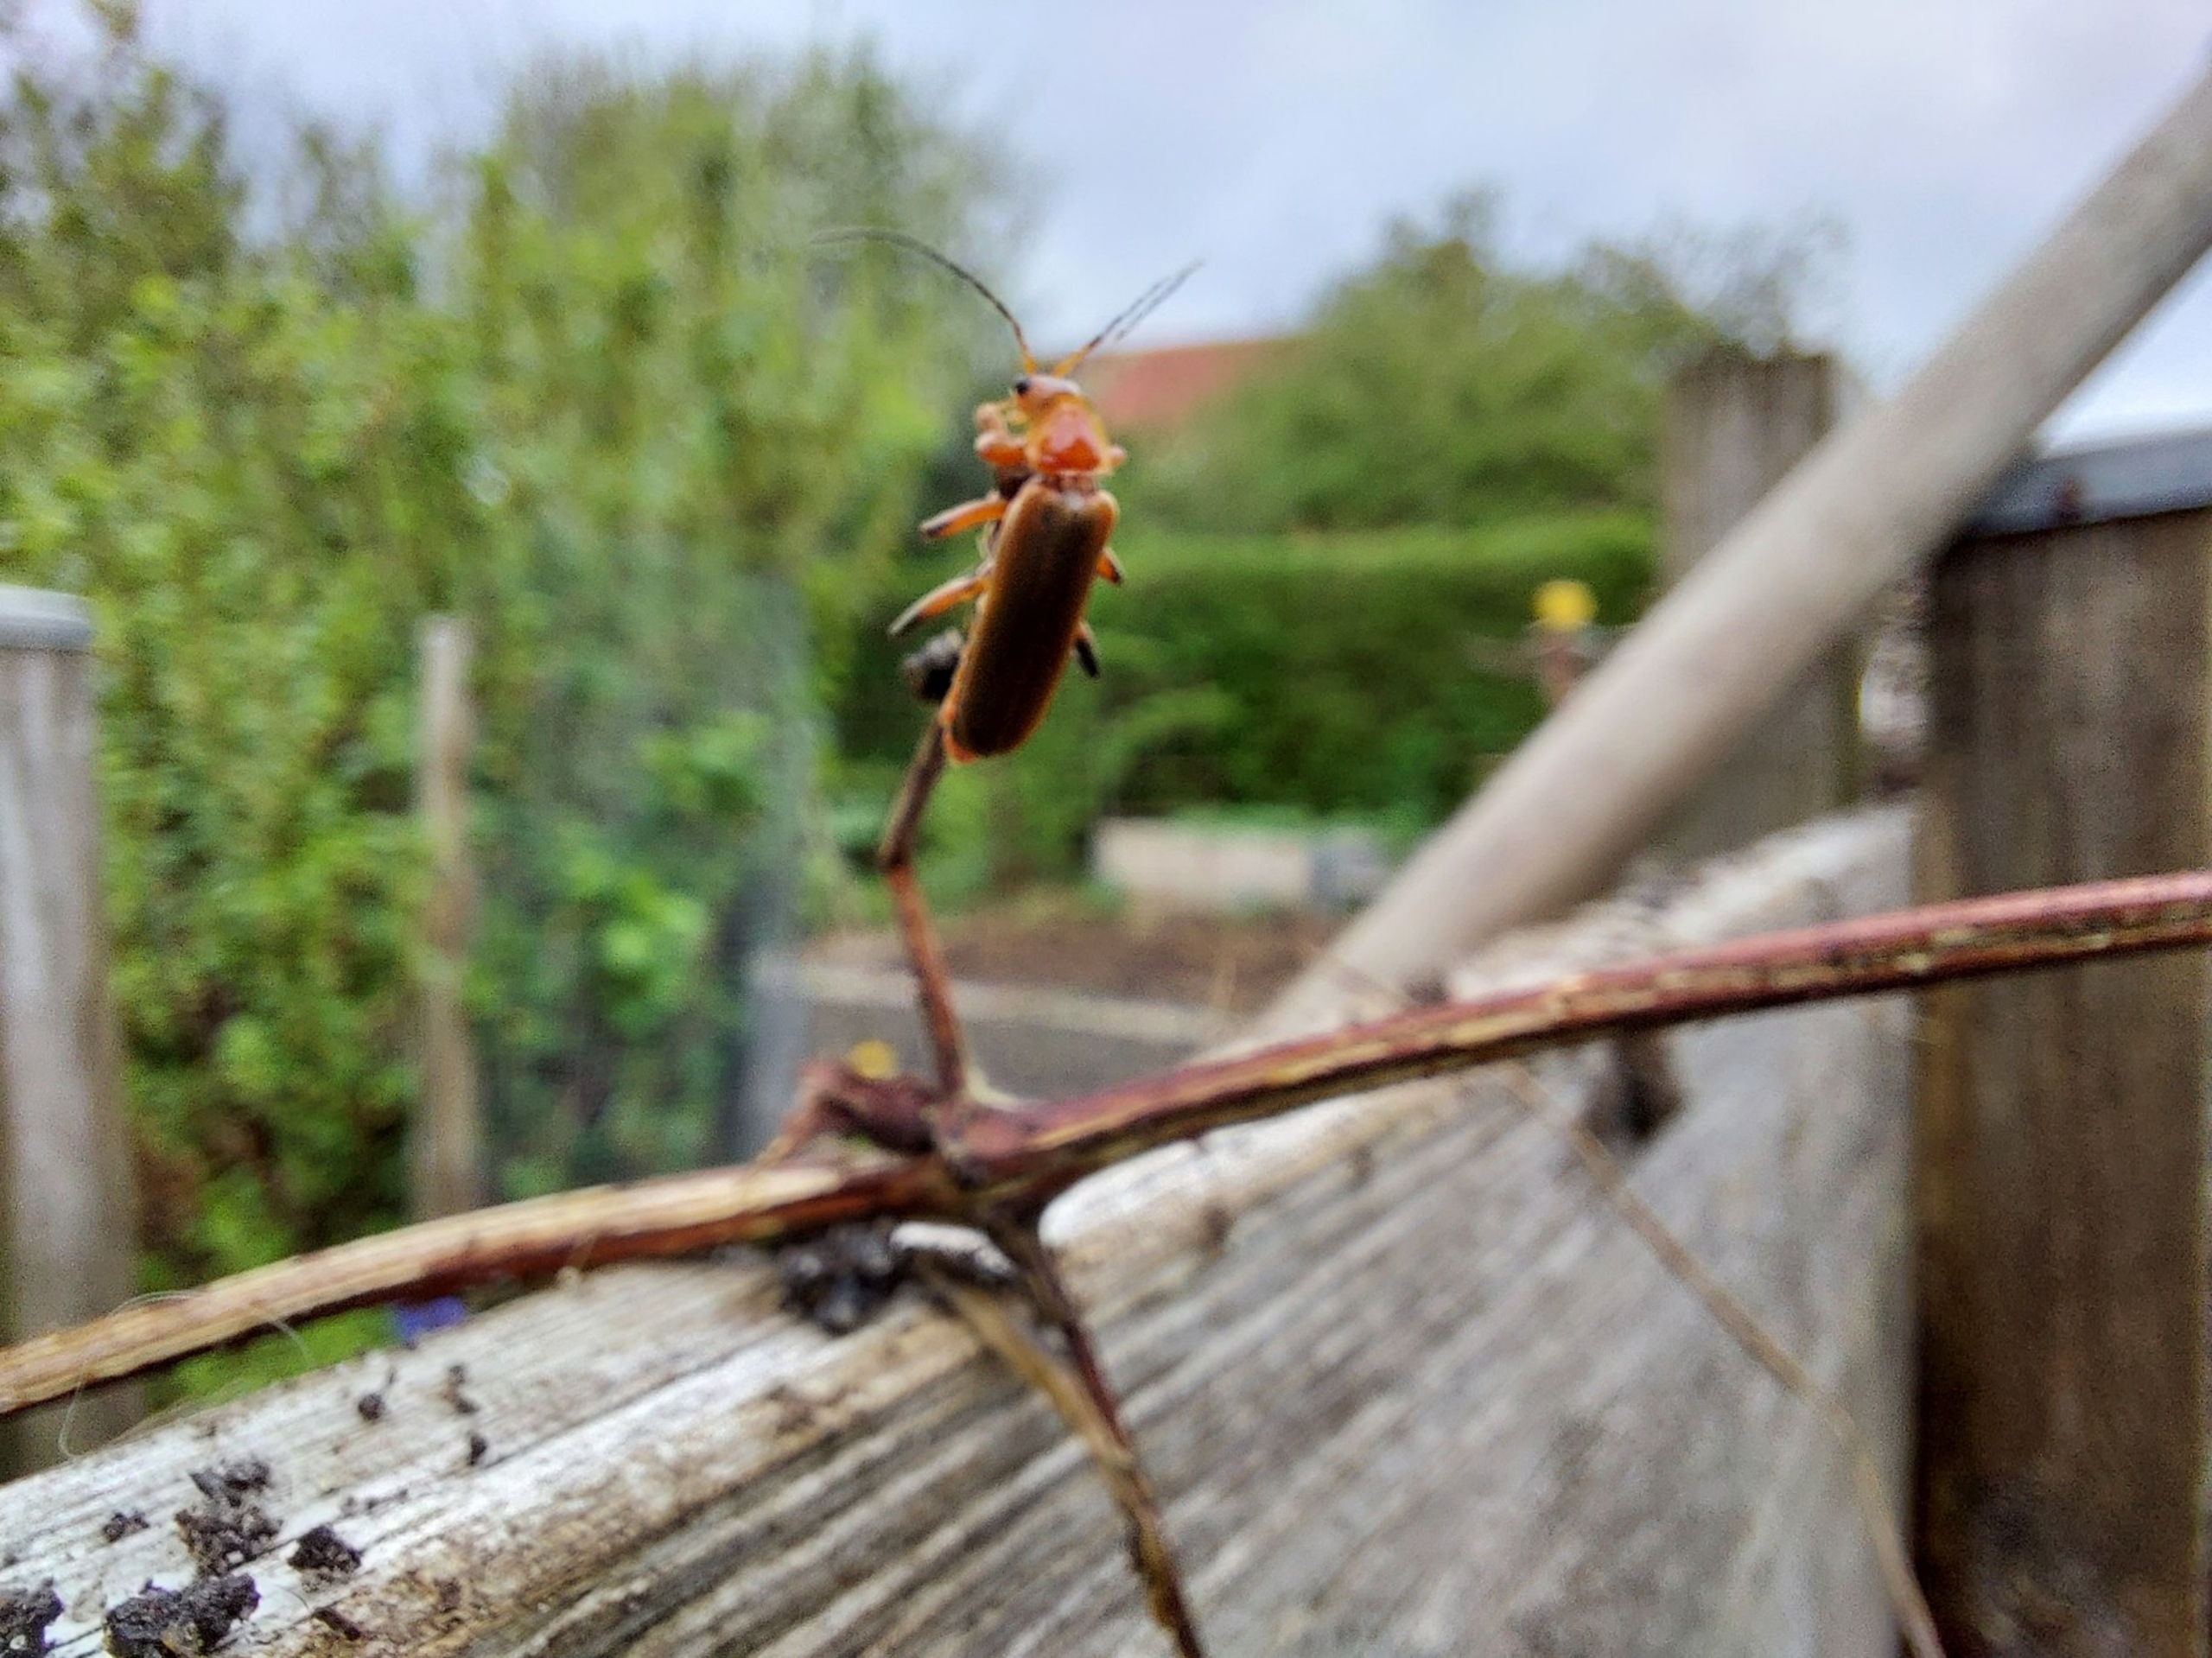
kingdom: Animalia
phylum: Arthropoda
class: Insecta
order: Coleoptera
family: Cantharidae
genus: Cantharis
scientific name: Cantharis livida
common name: Gul blødvinge
